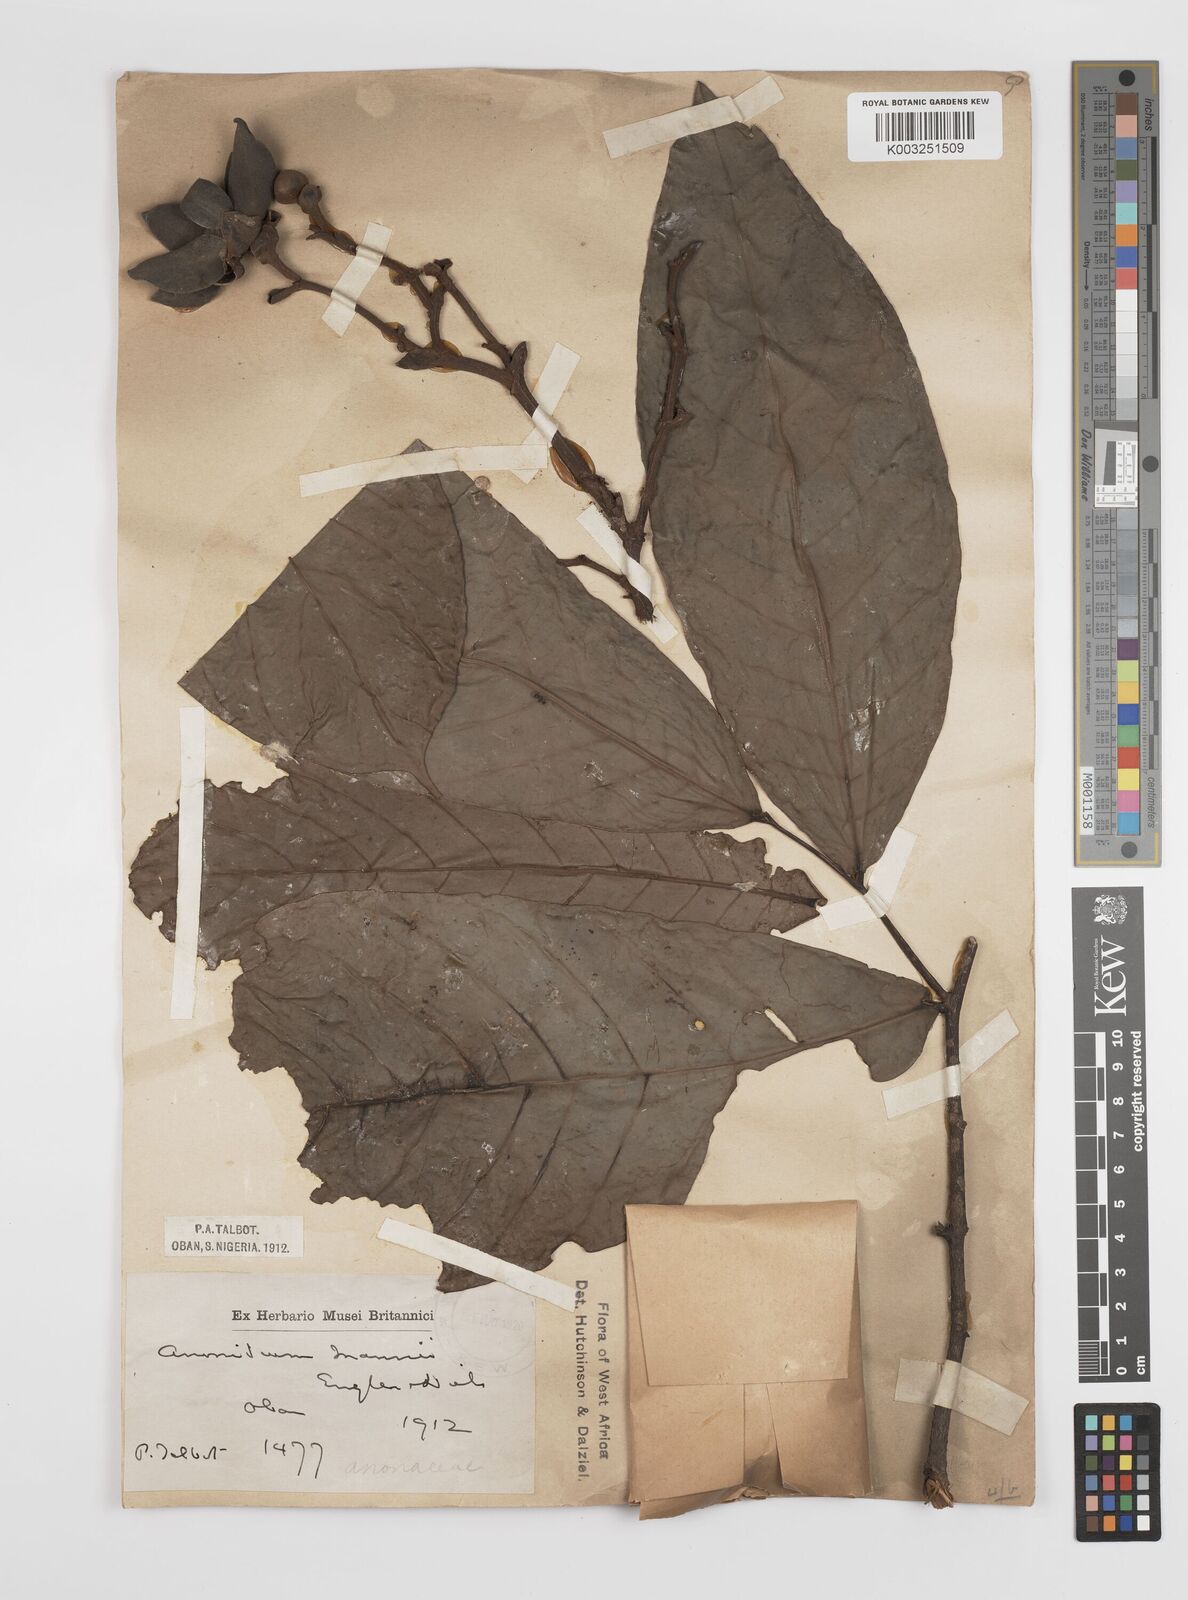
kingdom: Plantae
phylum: Tracheophyta
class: Magnoliopsida
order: Magnoliales
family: Annonaceae
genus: Anonidium
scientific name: Anonidium mannii
